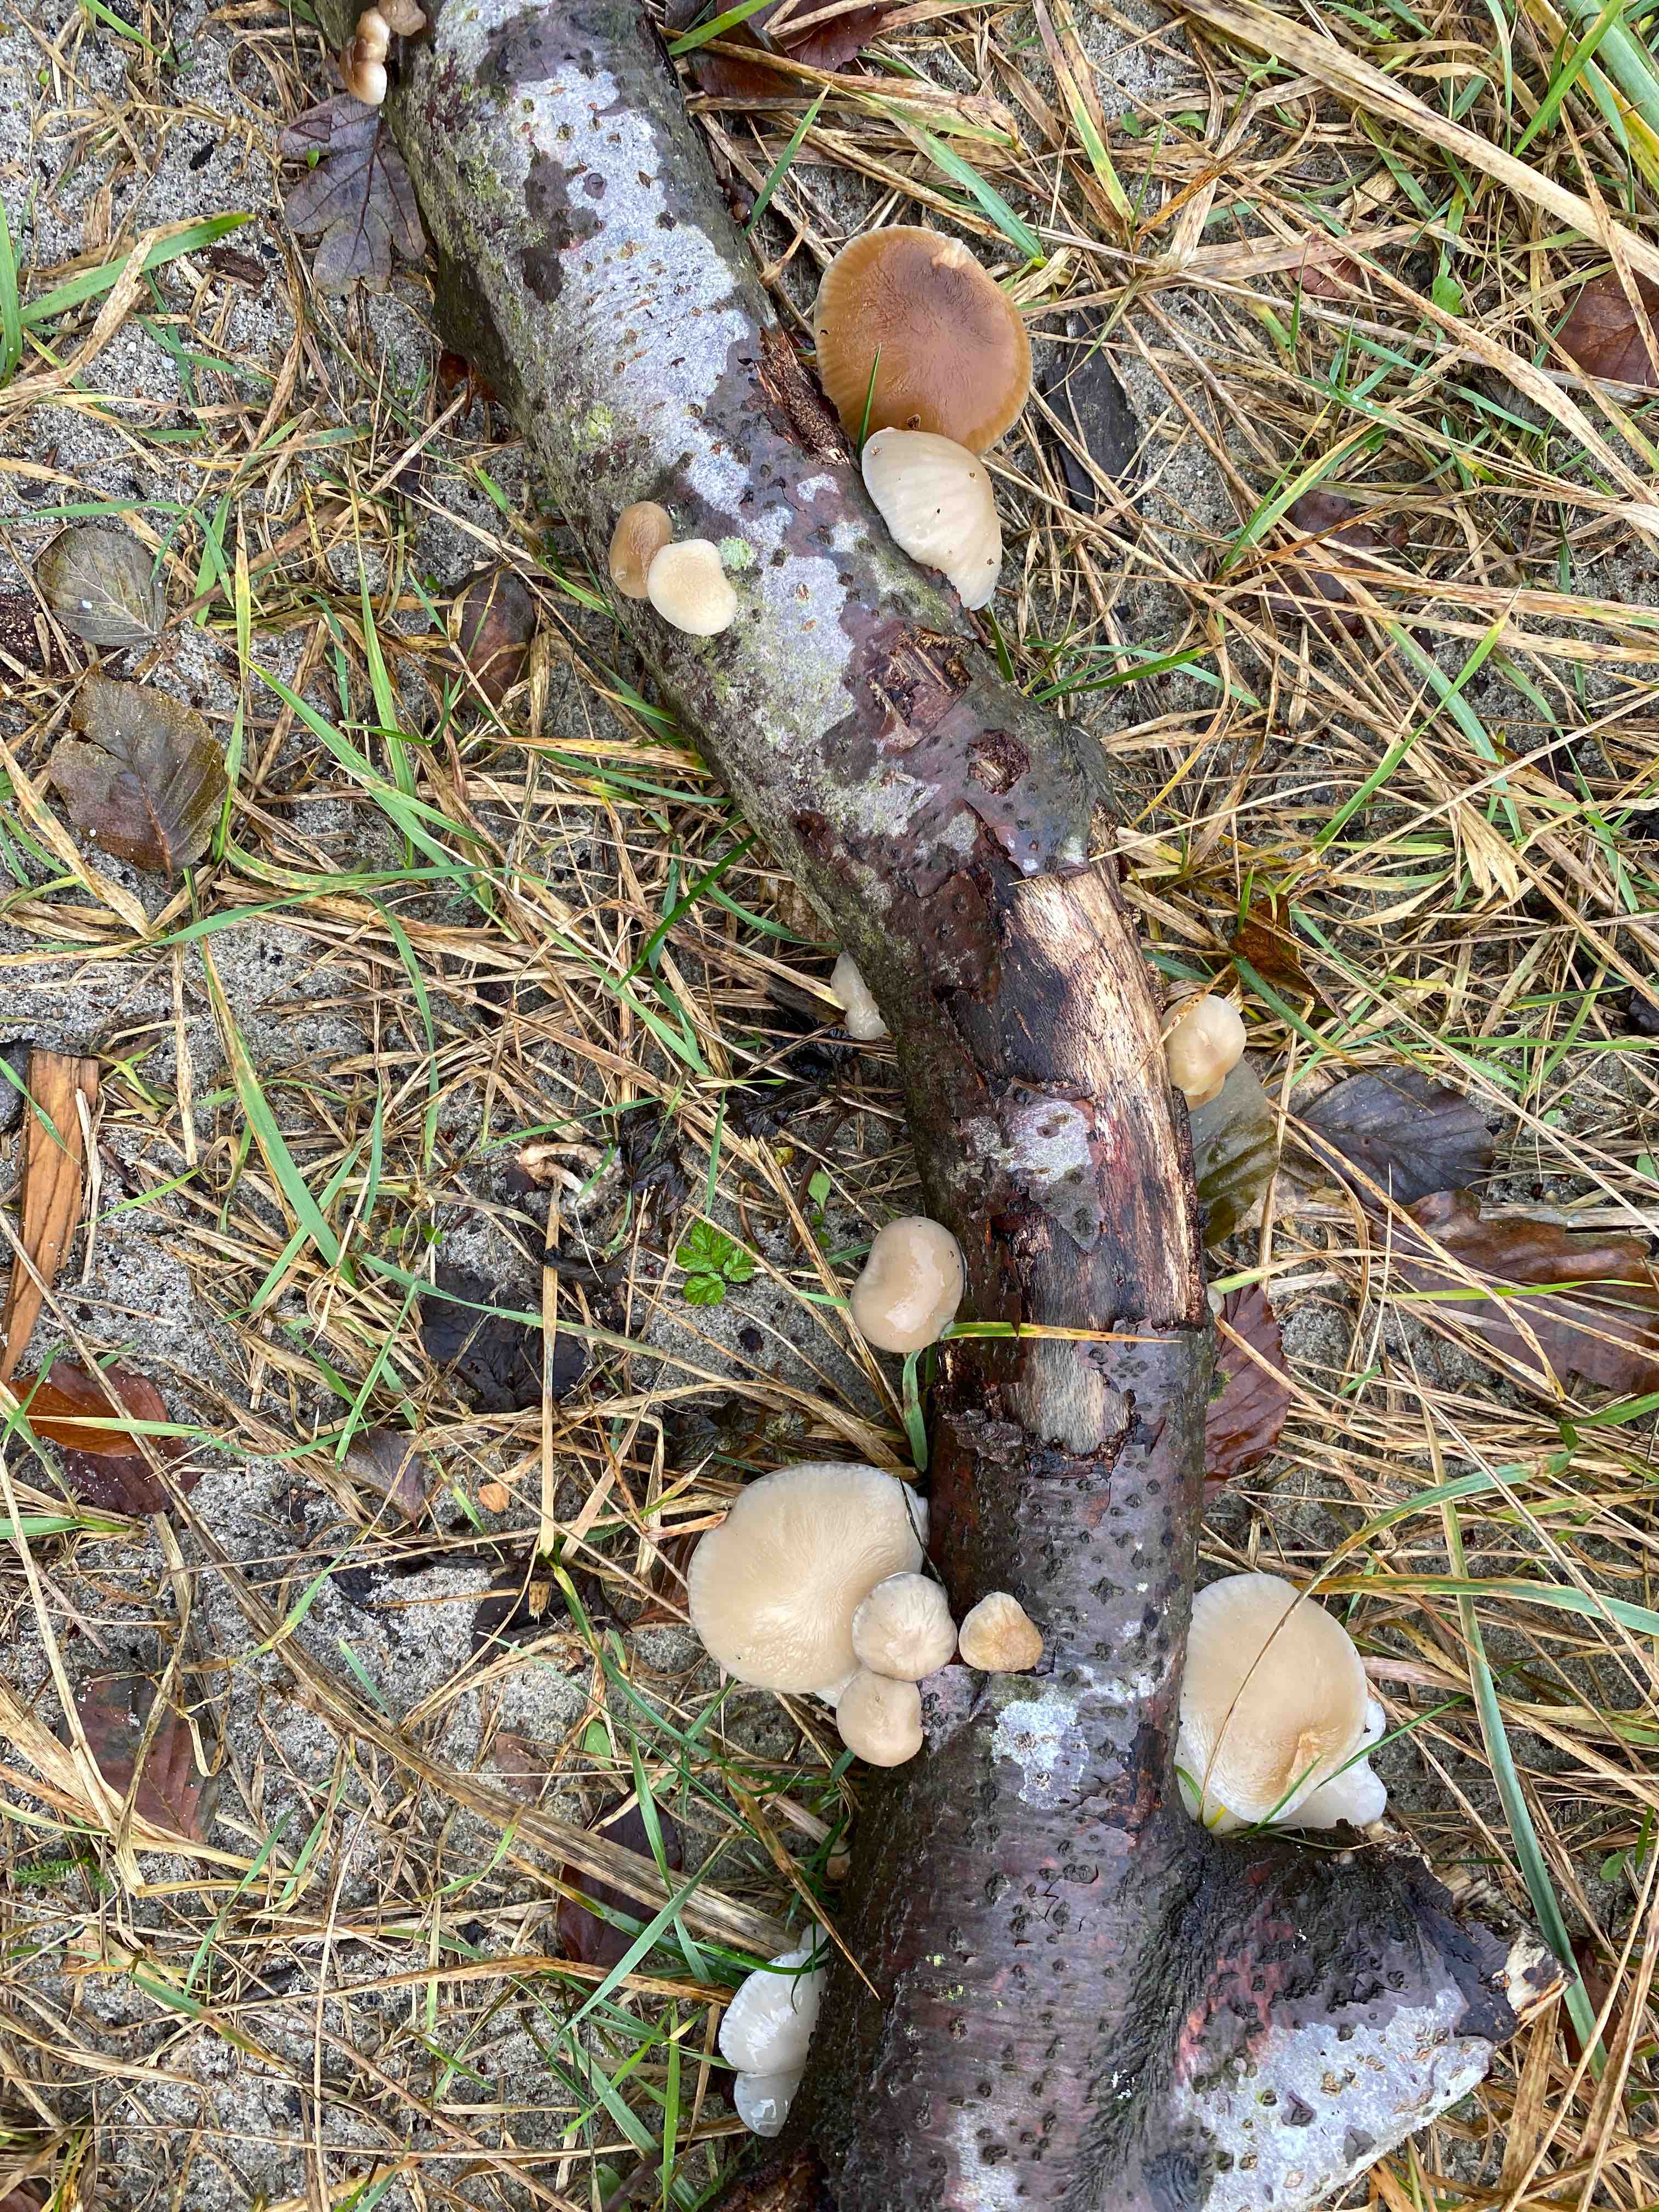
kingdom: Fungi
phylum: Basidiomycota
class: Agaricomycetes
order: Agaricales
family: Physalacriaceae
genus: Mucidula
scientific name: Mucidula mucida
